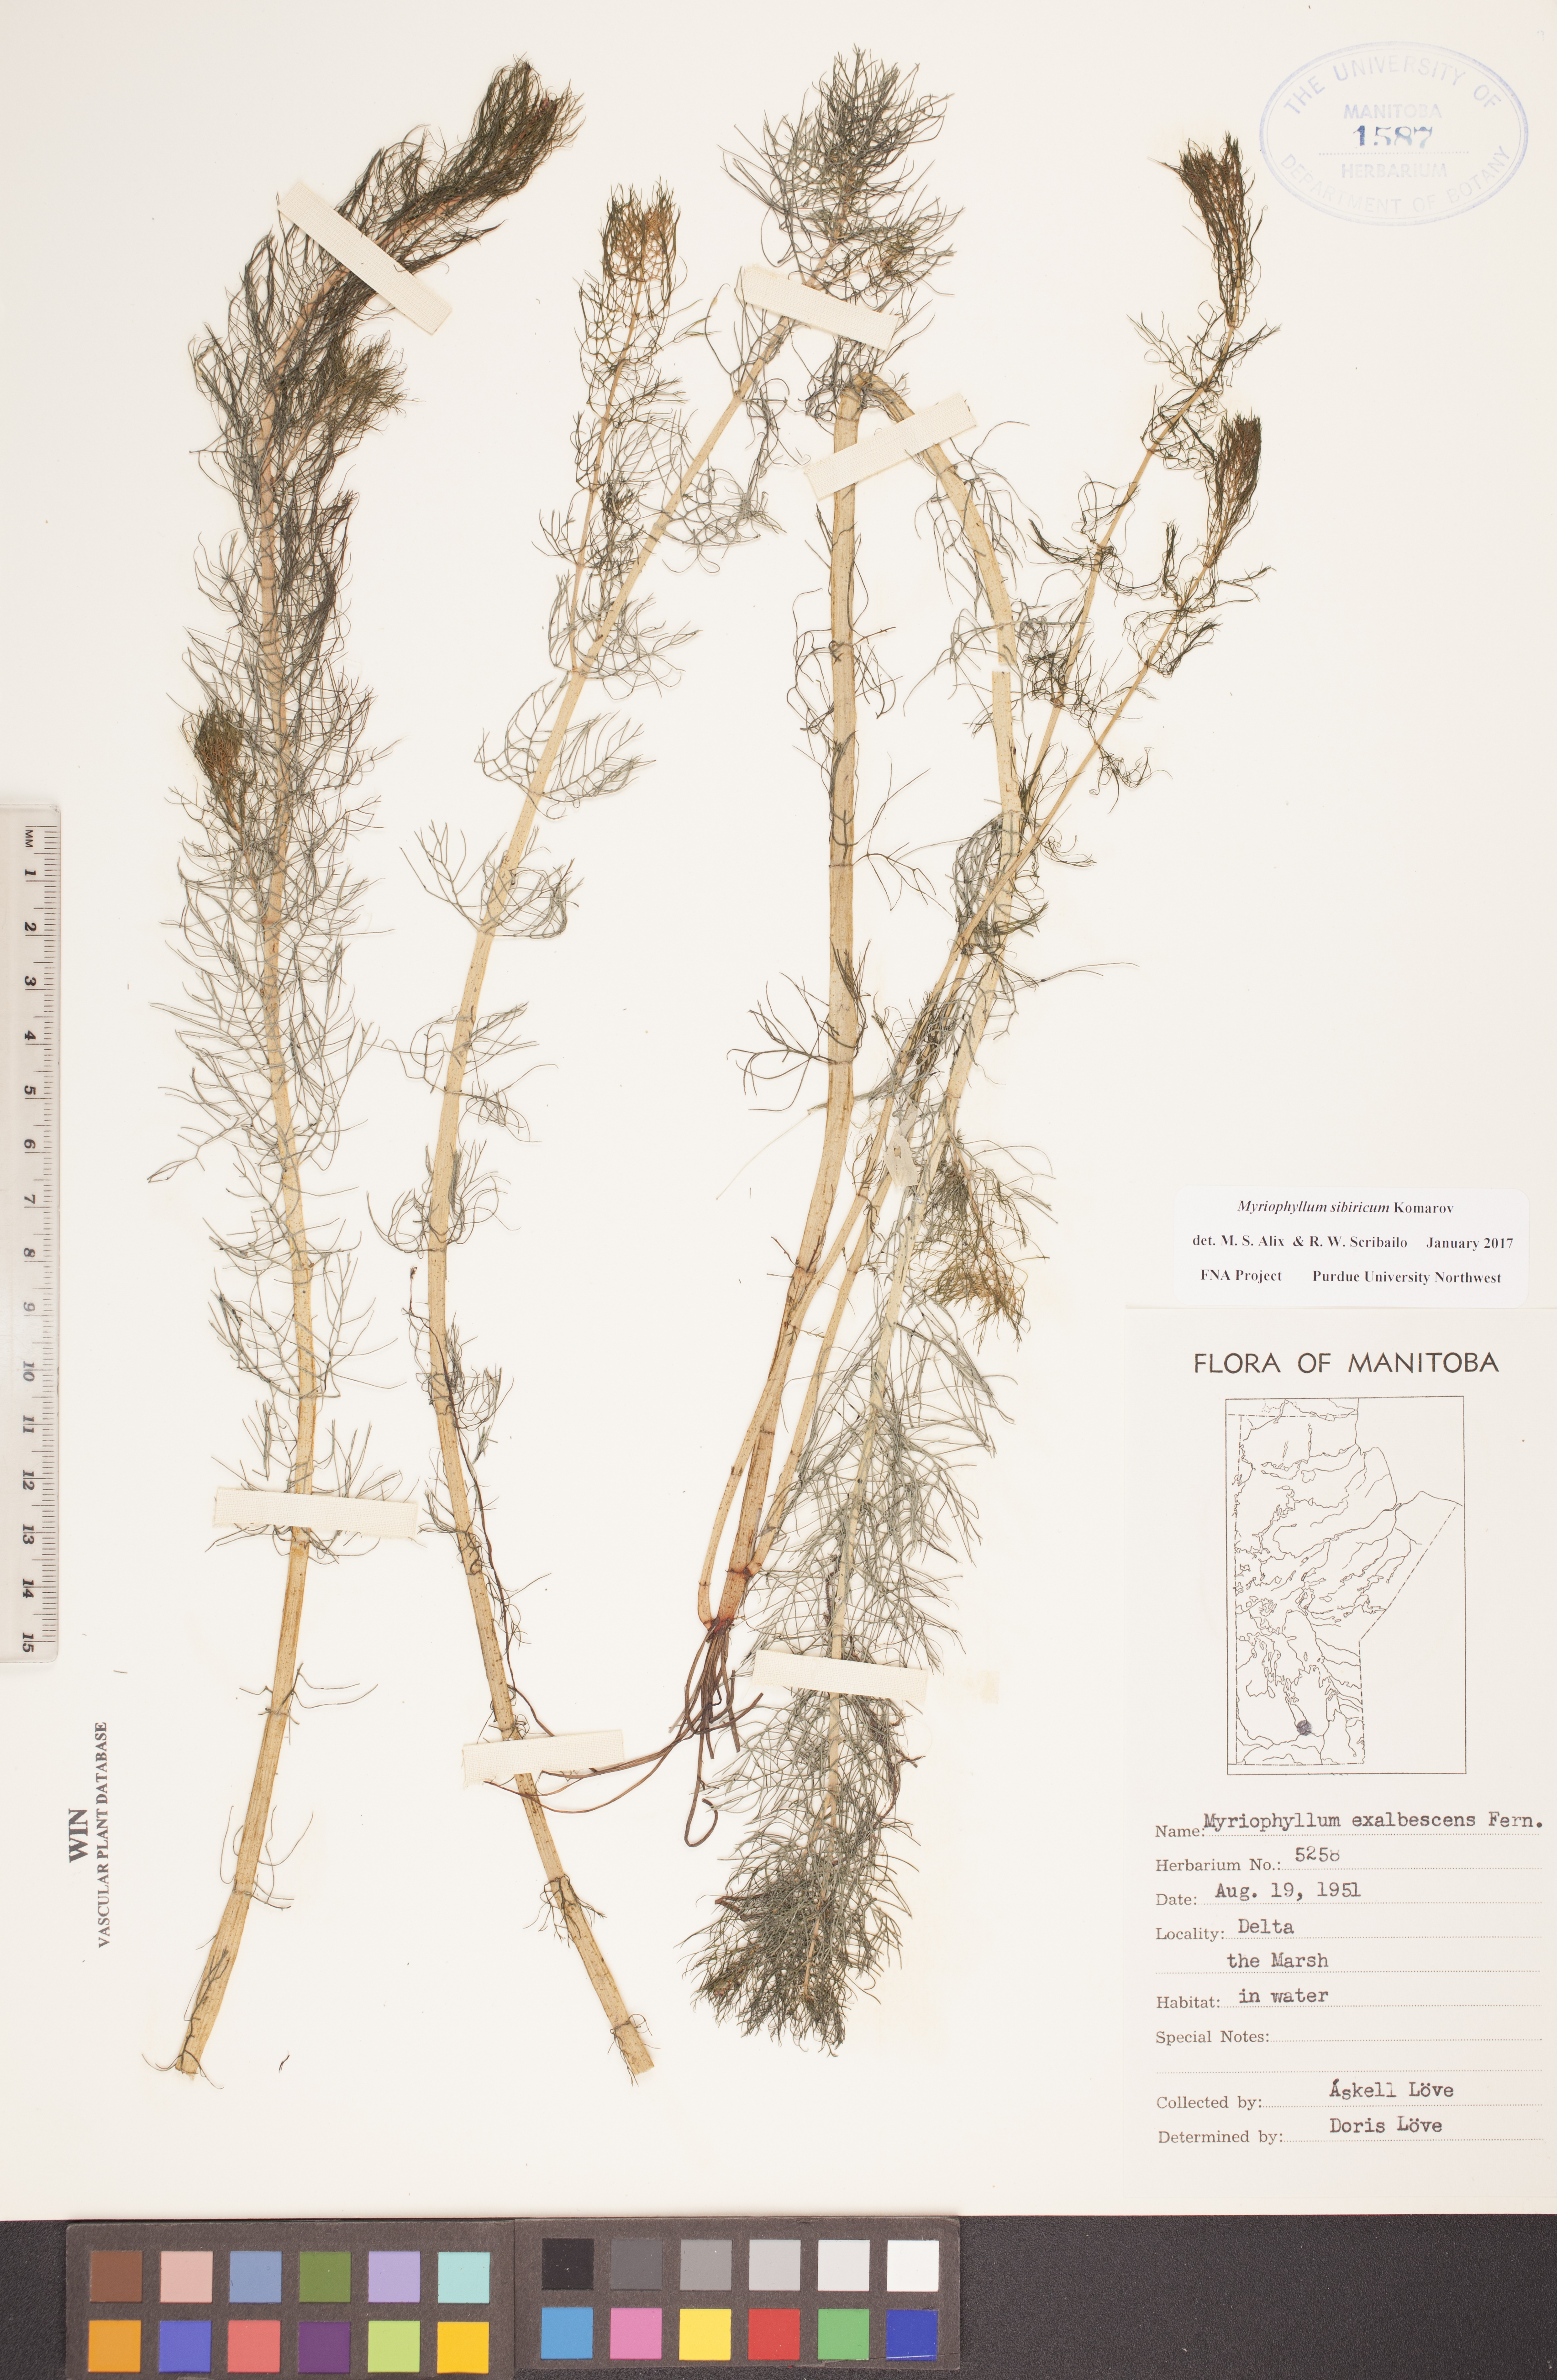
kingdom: Plantae
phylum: Tracheophyta
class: Magnoliopsida
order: Saxifragales
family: Haloragaceae
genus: Myriophyllum
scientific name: Myriophyllum sibiricum
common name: Siberian water-milfoil
